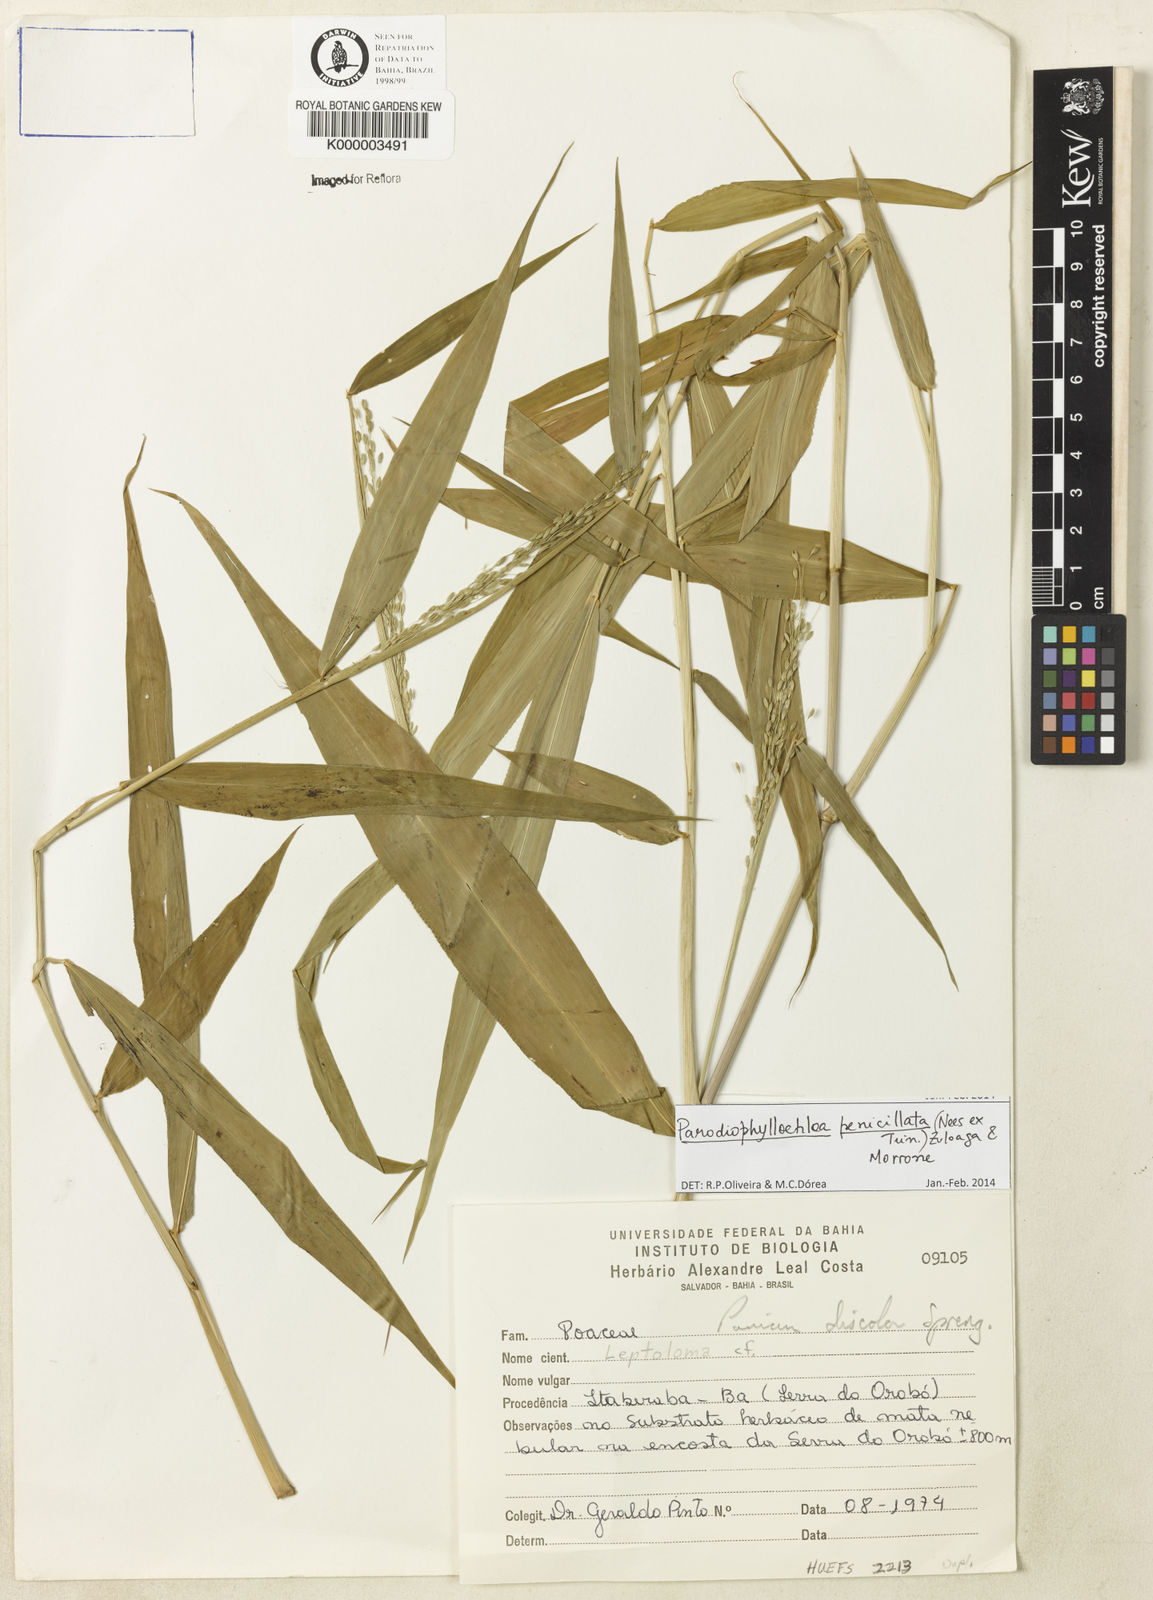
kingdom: Plantae
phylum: Tracheophyta
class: Liliopsida
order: Poales
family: Poaceae
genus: Panicum
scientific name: Panicum
